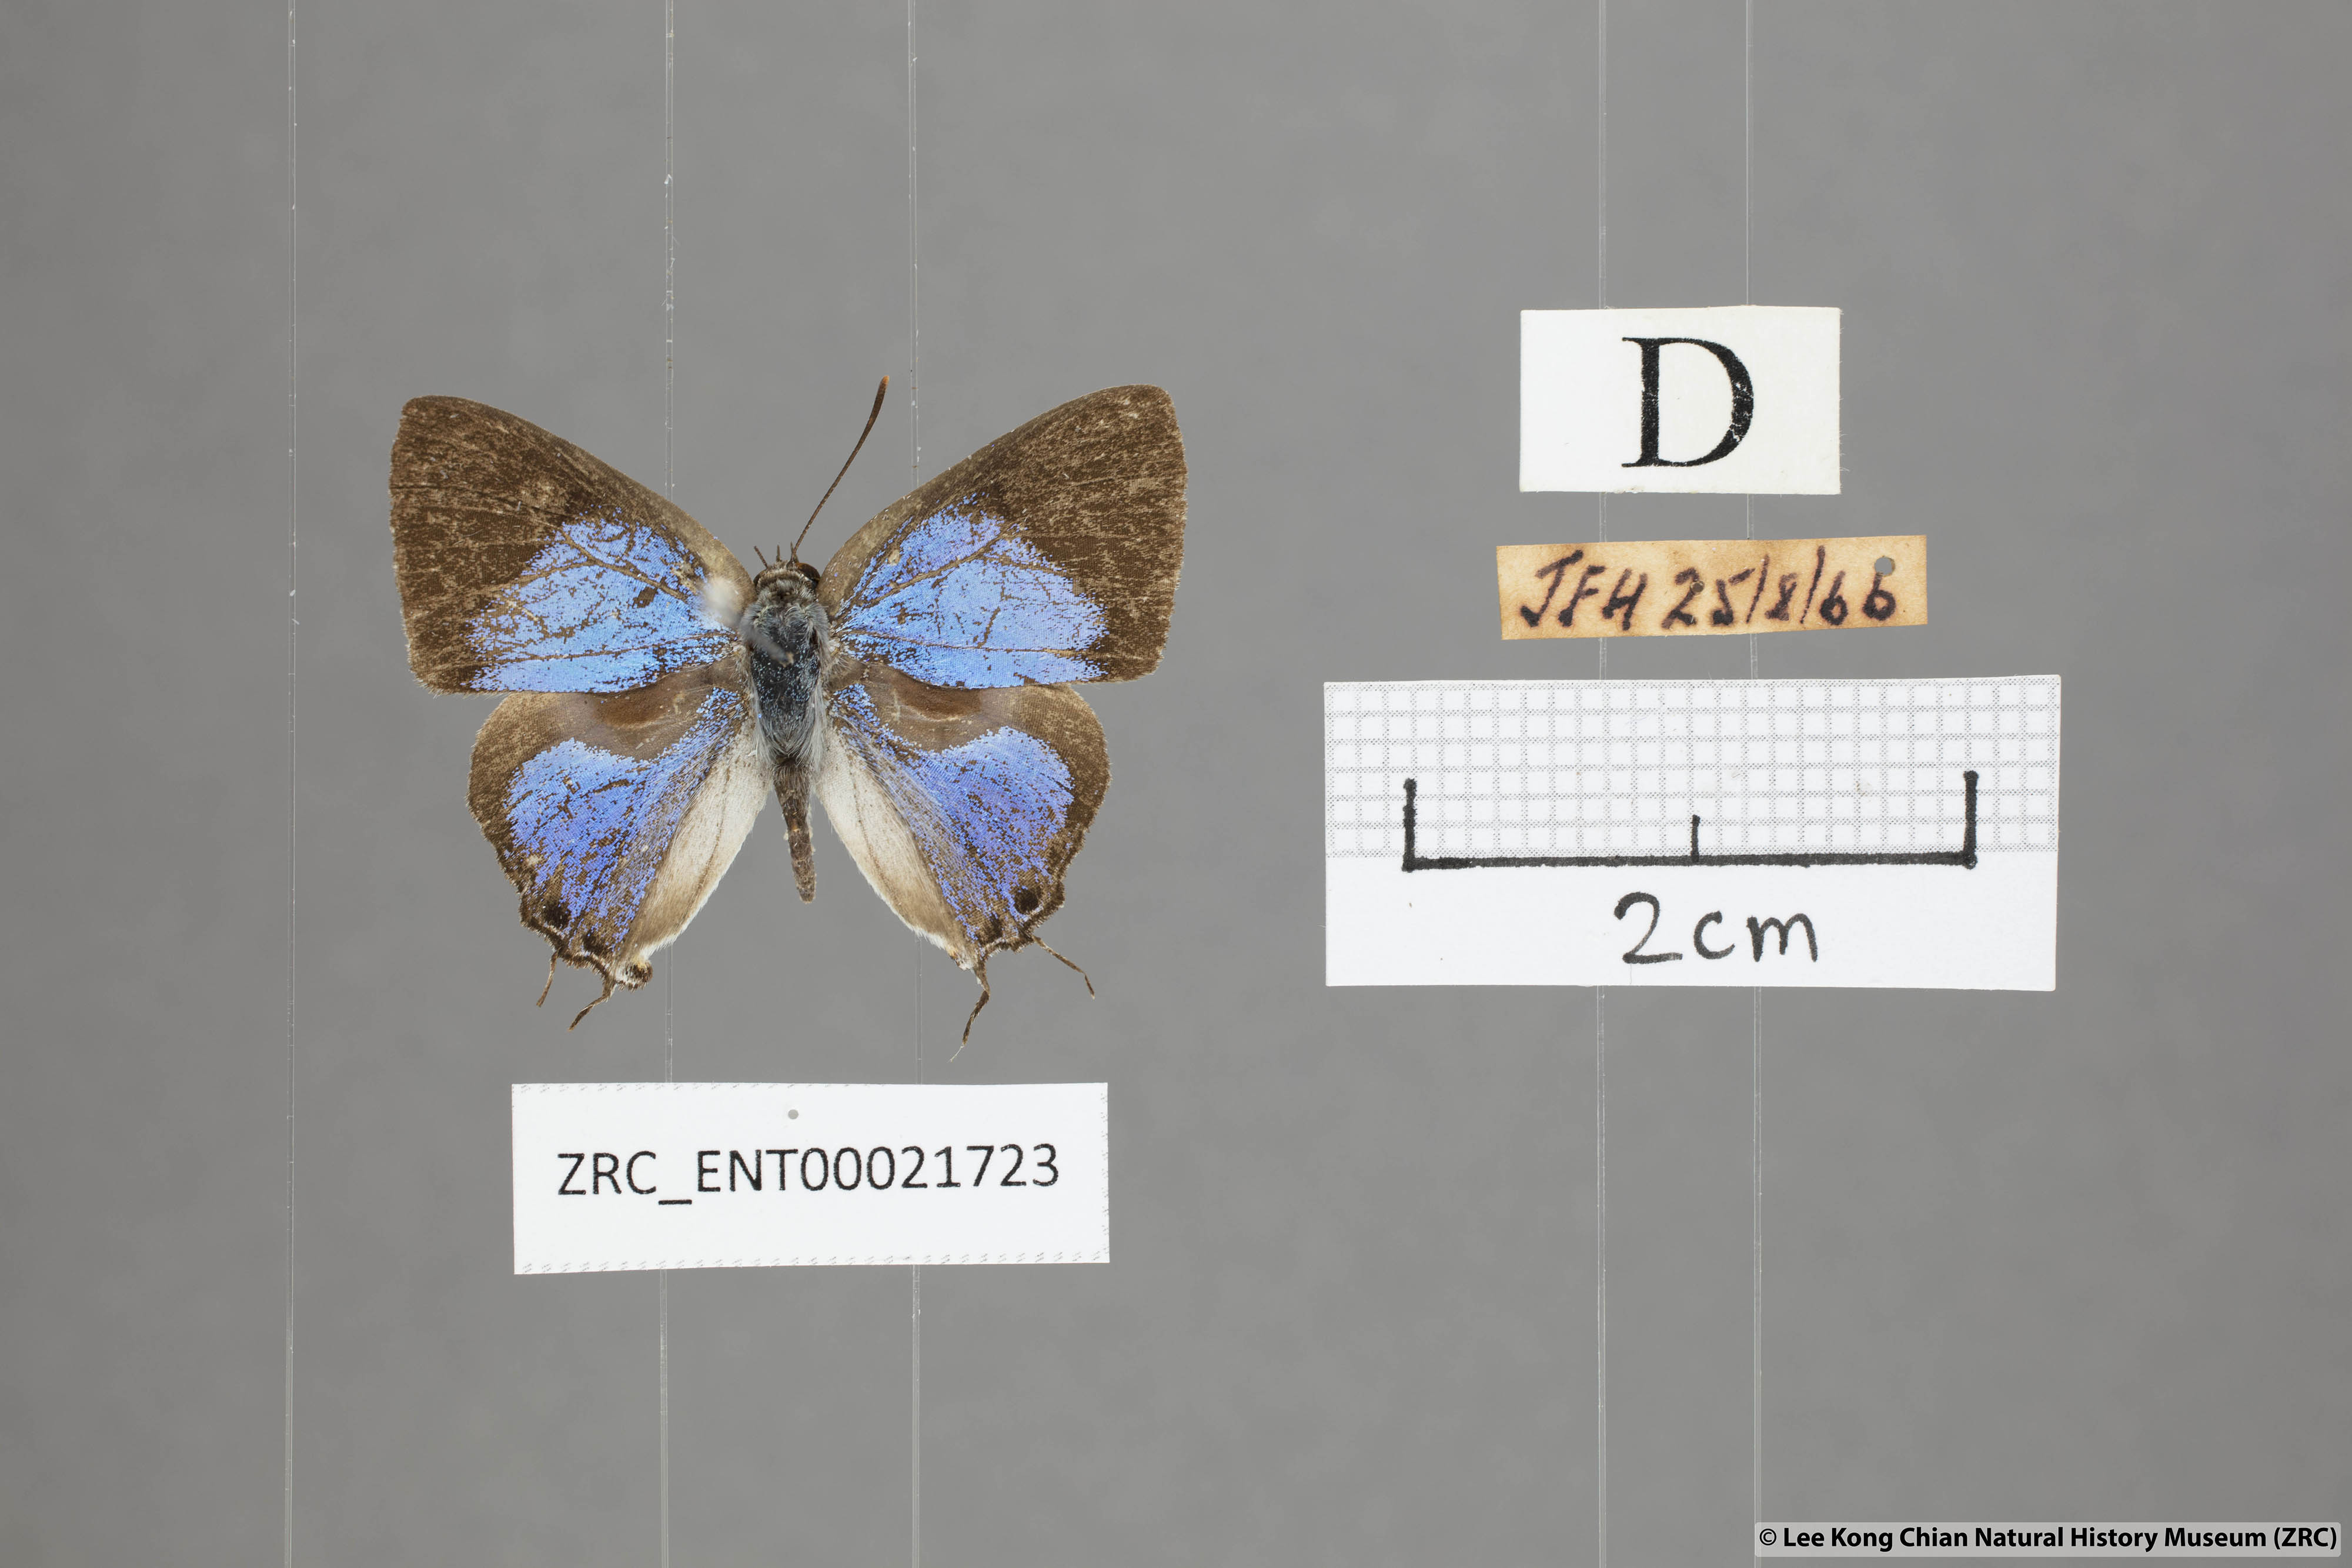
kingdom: Animalia
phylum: Arthropoda
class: Insecta
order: Lepidoptera
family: Lycaenidae
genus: Pratapa
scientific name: Pratapa deva
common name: White royal
